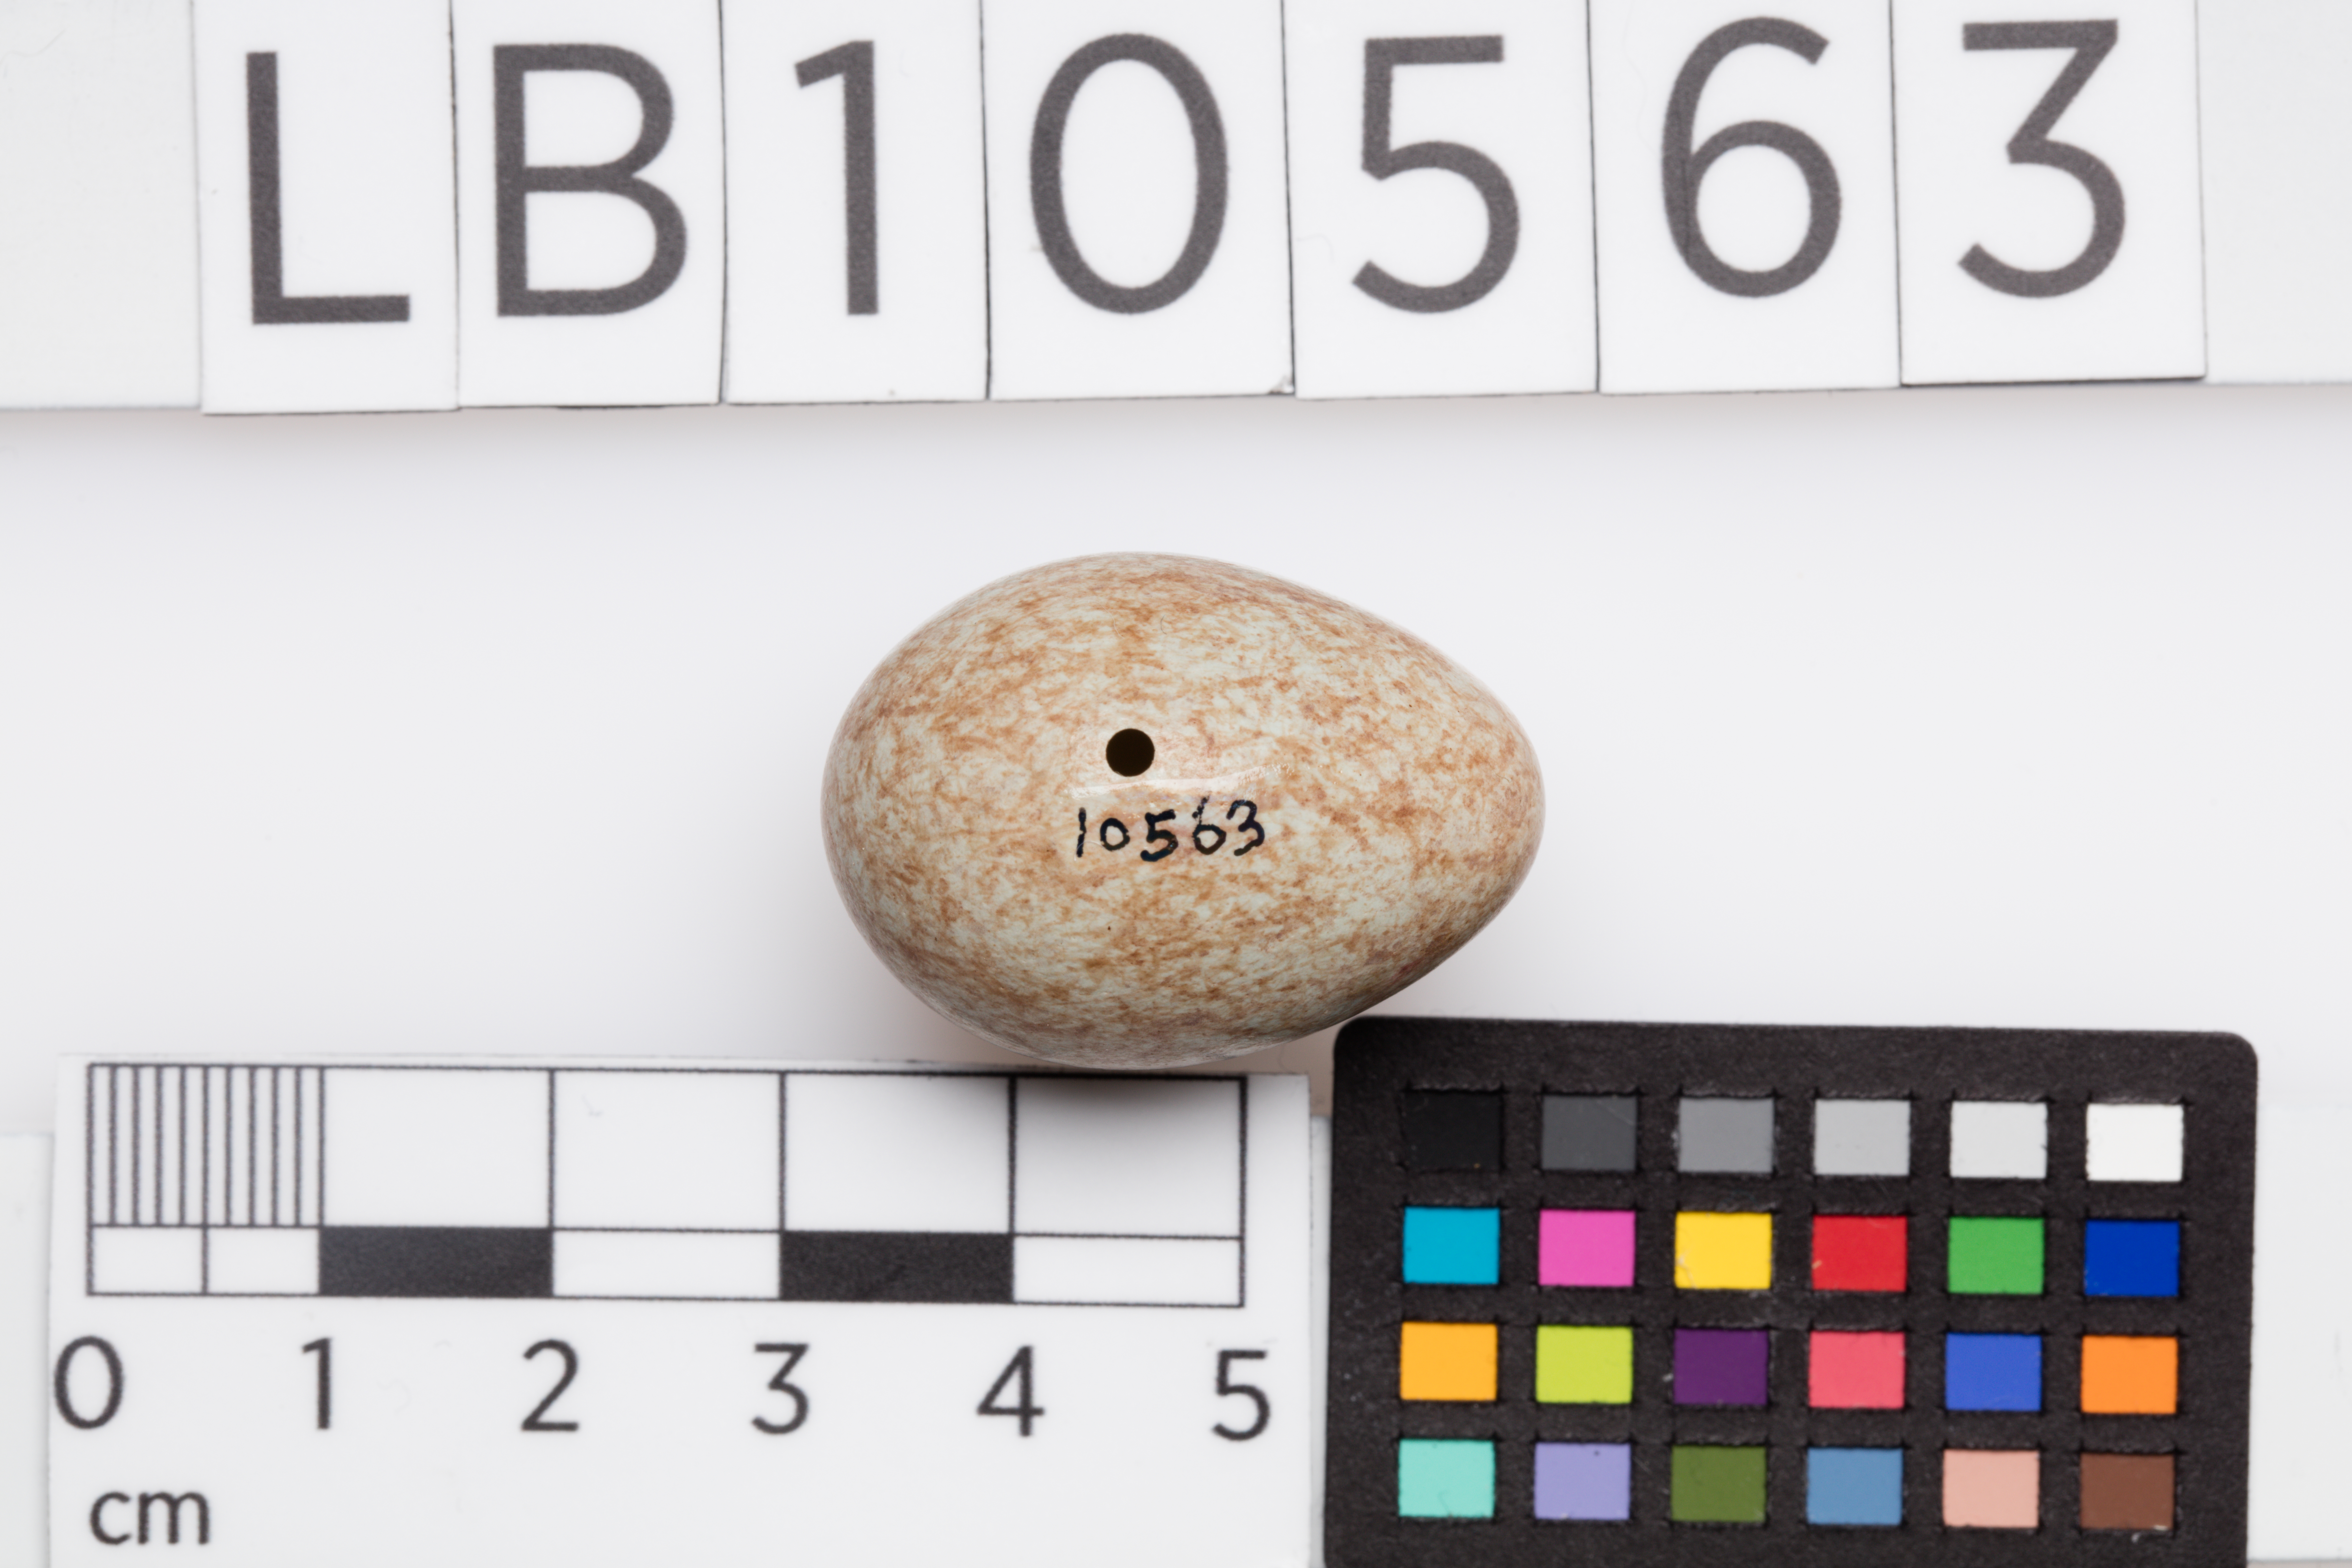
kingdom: Animalia
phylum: Chordata
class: Aves
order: Passeriformes
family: Turdidae
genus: Turdus
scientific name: Turdus merula
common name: Common blackbird
